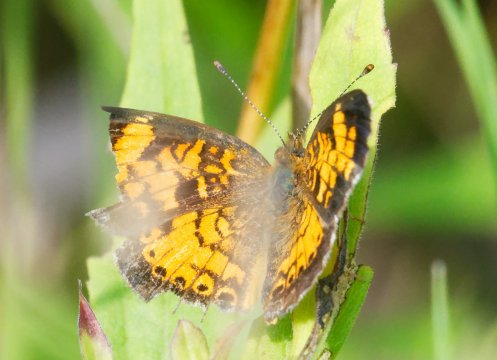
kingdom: Animalia
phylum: Arthropoda
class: Insecta
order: Lepidoptera
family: Nymphalidae
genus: Phyciodes
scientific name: Phyciodes tharos
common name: Pearl Crescent
